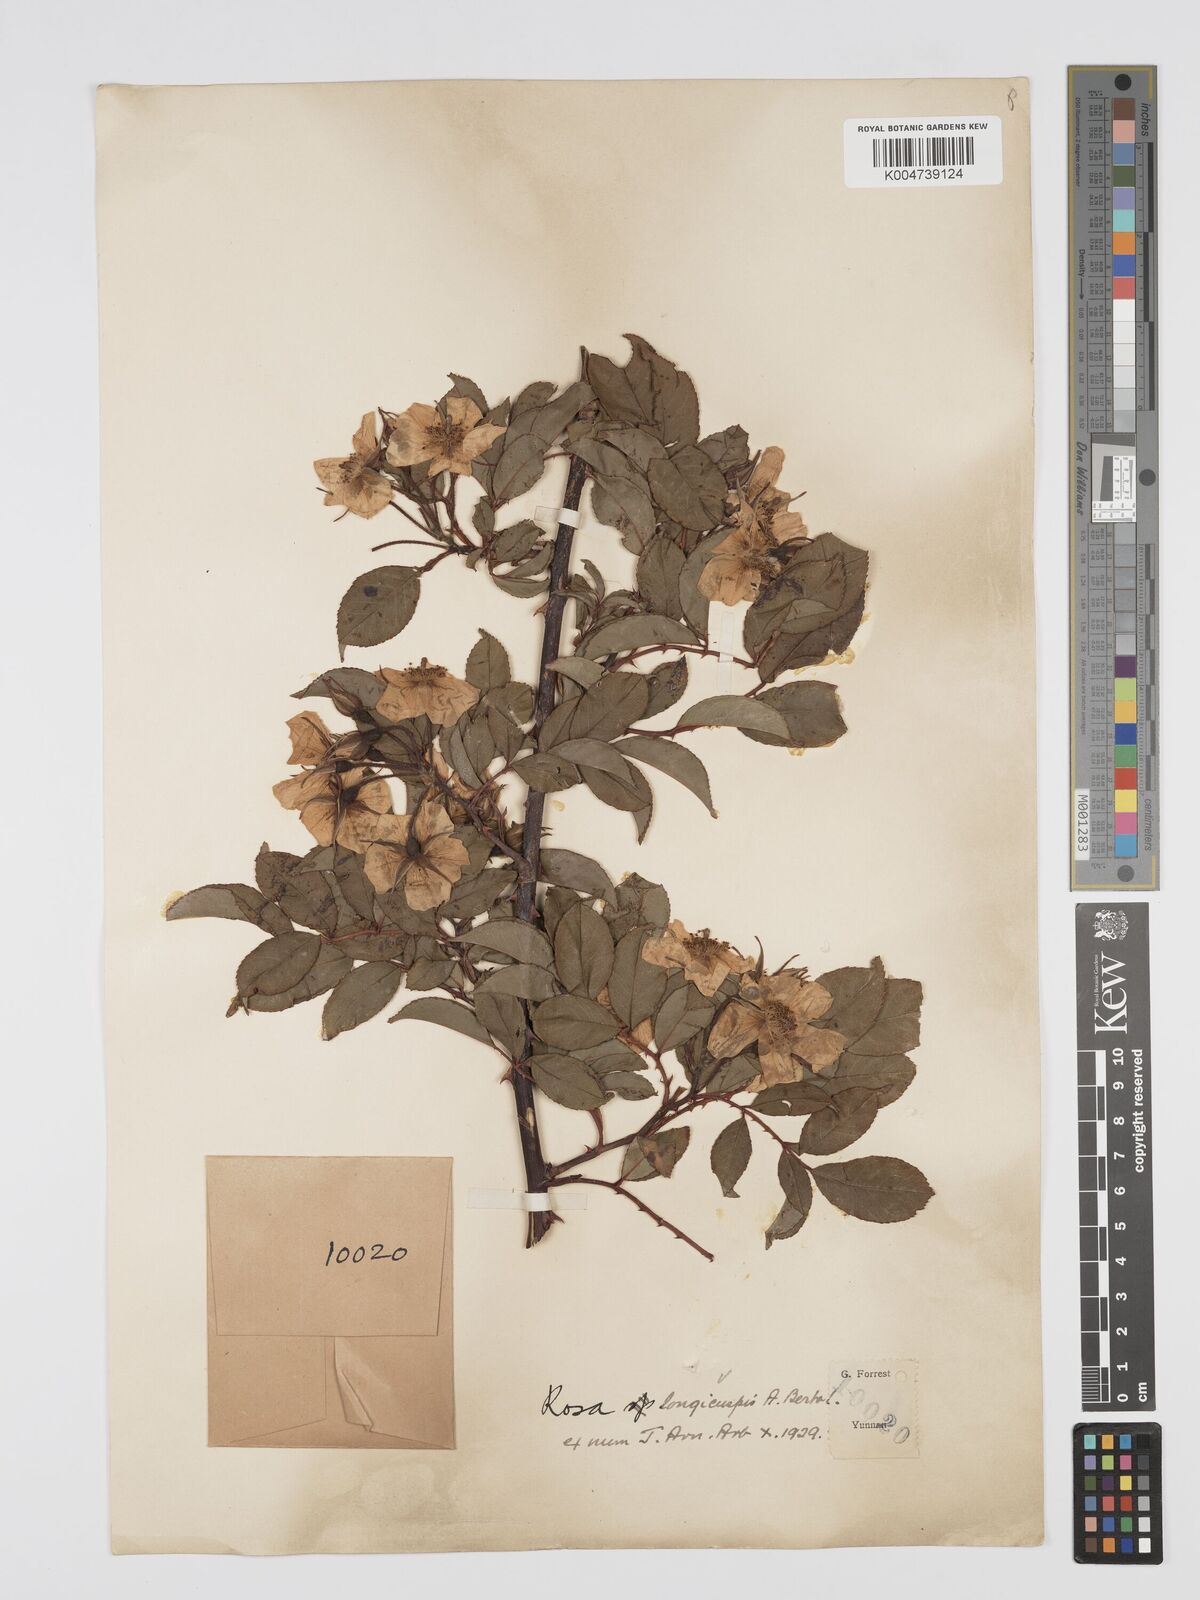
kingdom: Plantae
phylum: Tracheophyta
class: Magnoliopsida
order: Rosales
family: Rosaceae
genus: Rosa
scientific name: Rosa longicuspis
